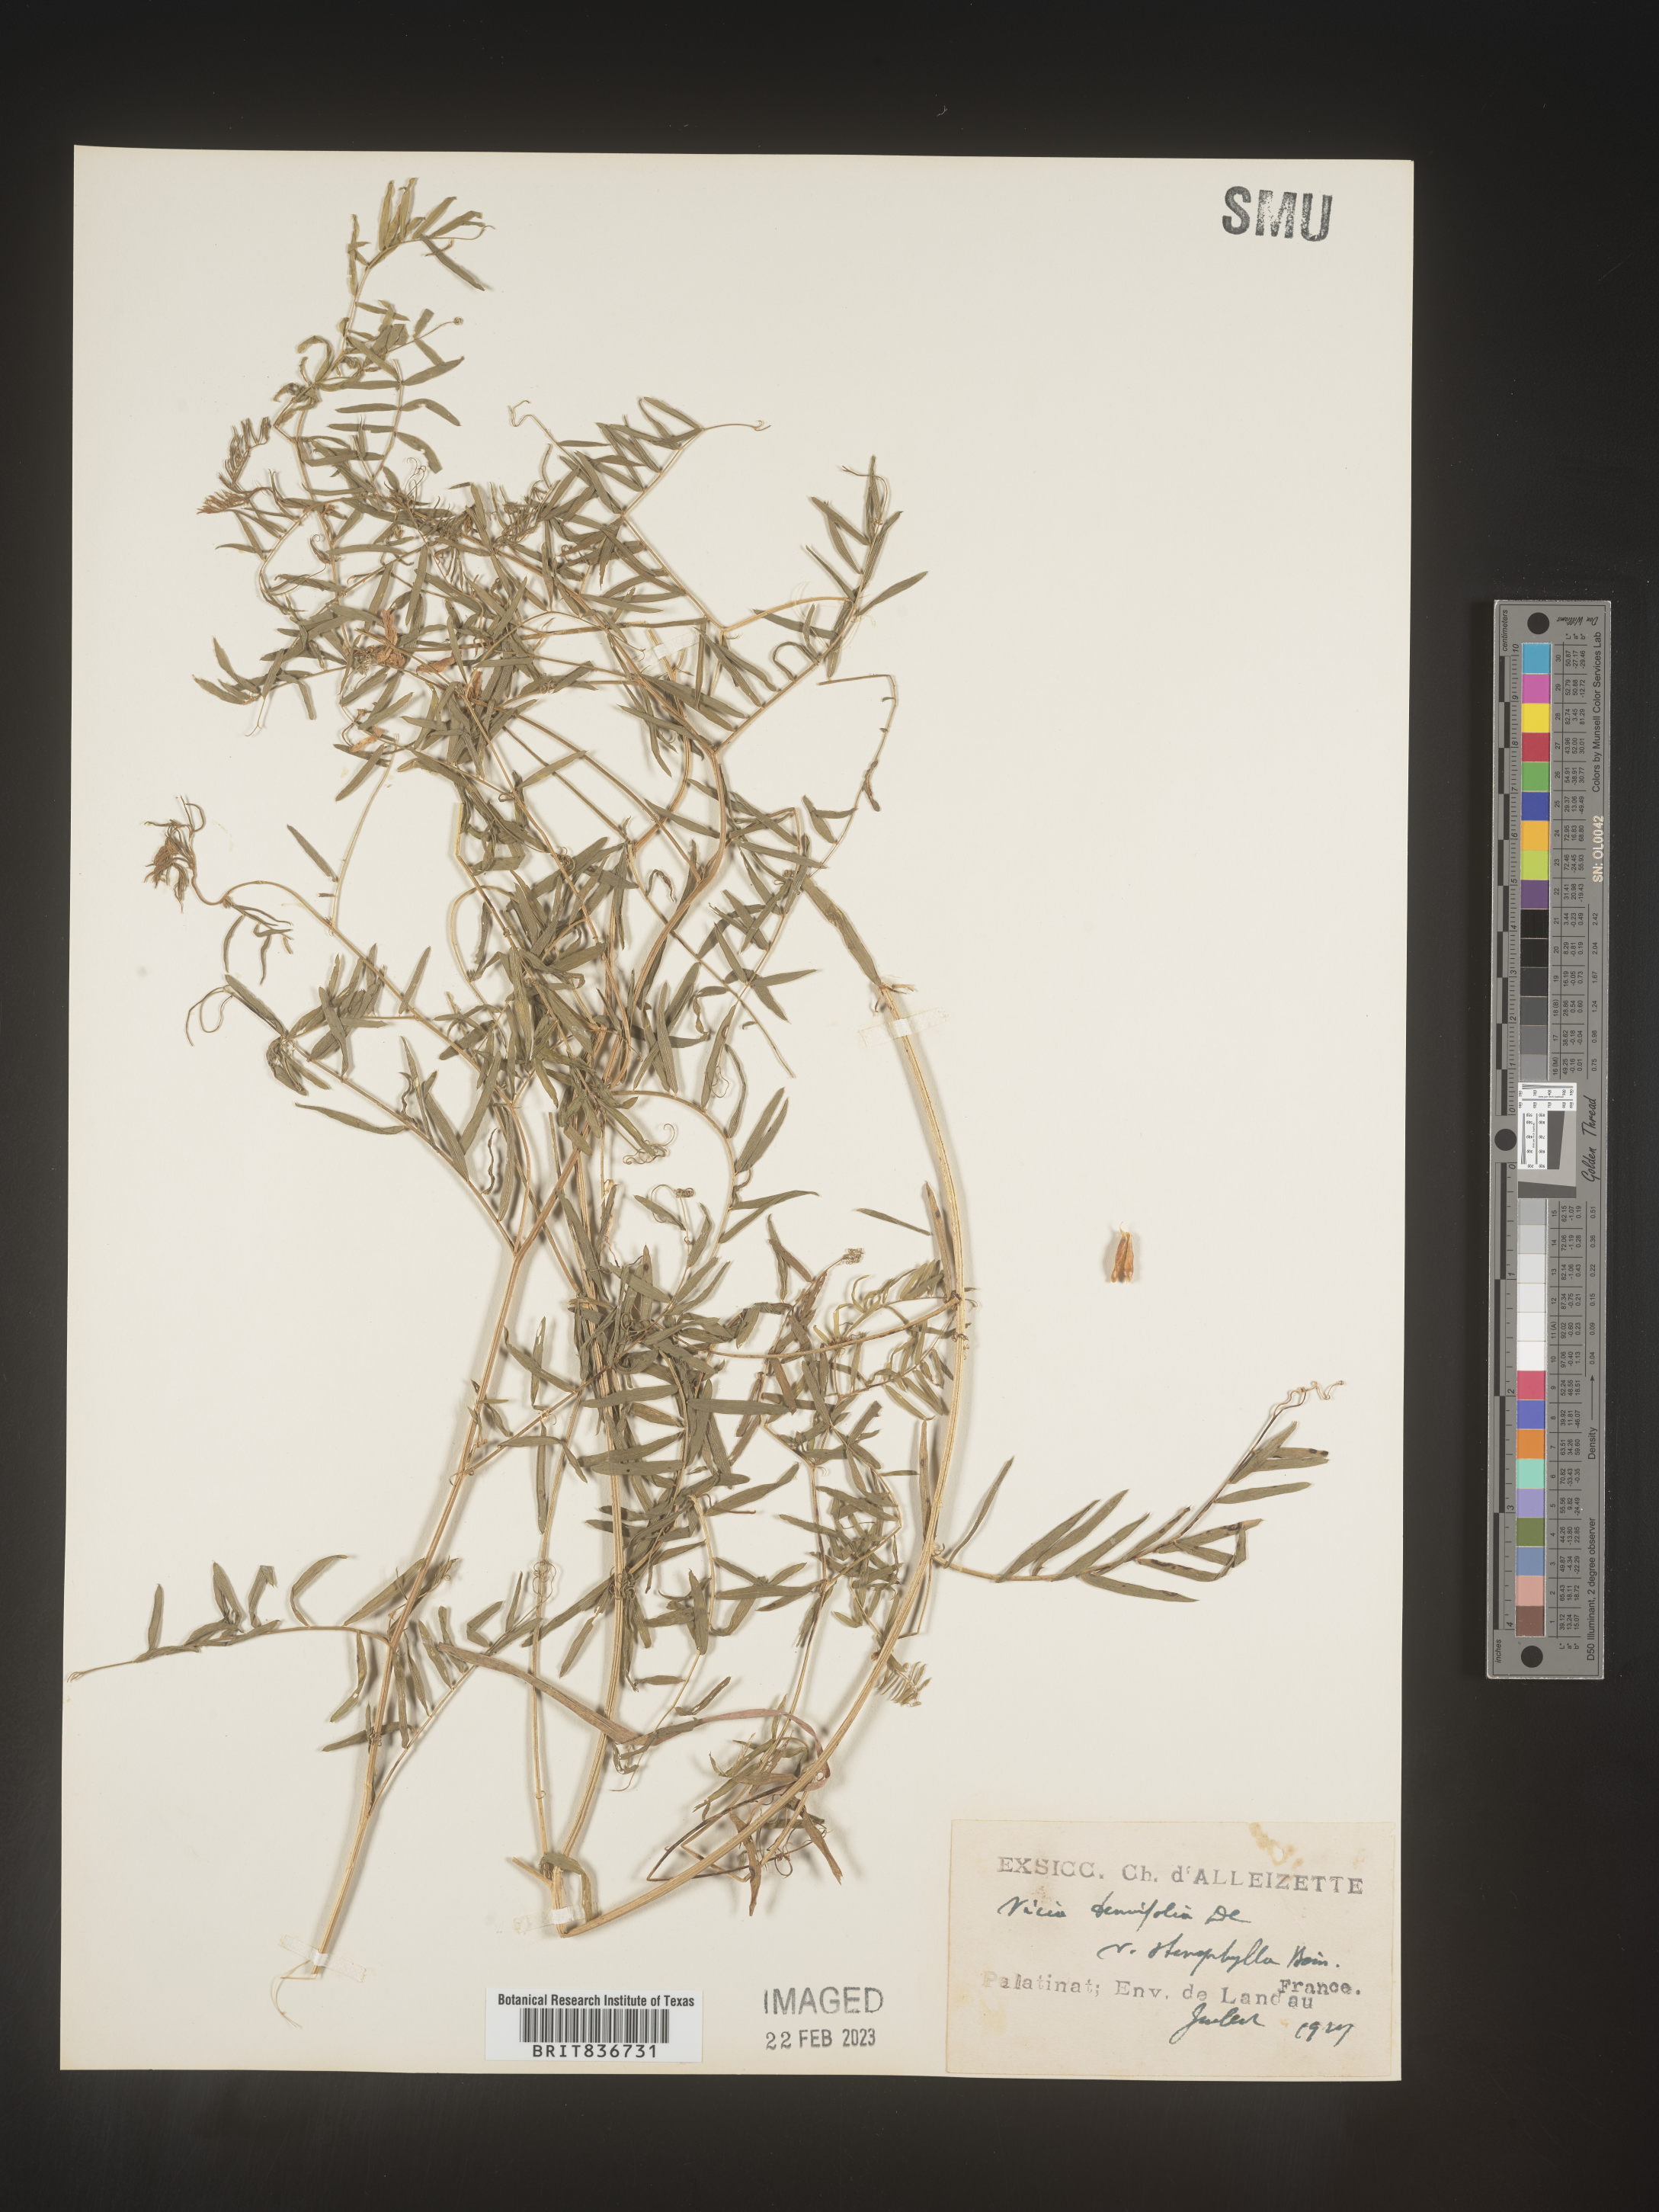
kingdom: Plantae
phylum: Tracheophyta
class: Magnoliopsida
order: Fabales
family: Fabaceae
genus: Vicia
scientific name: Vicia
